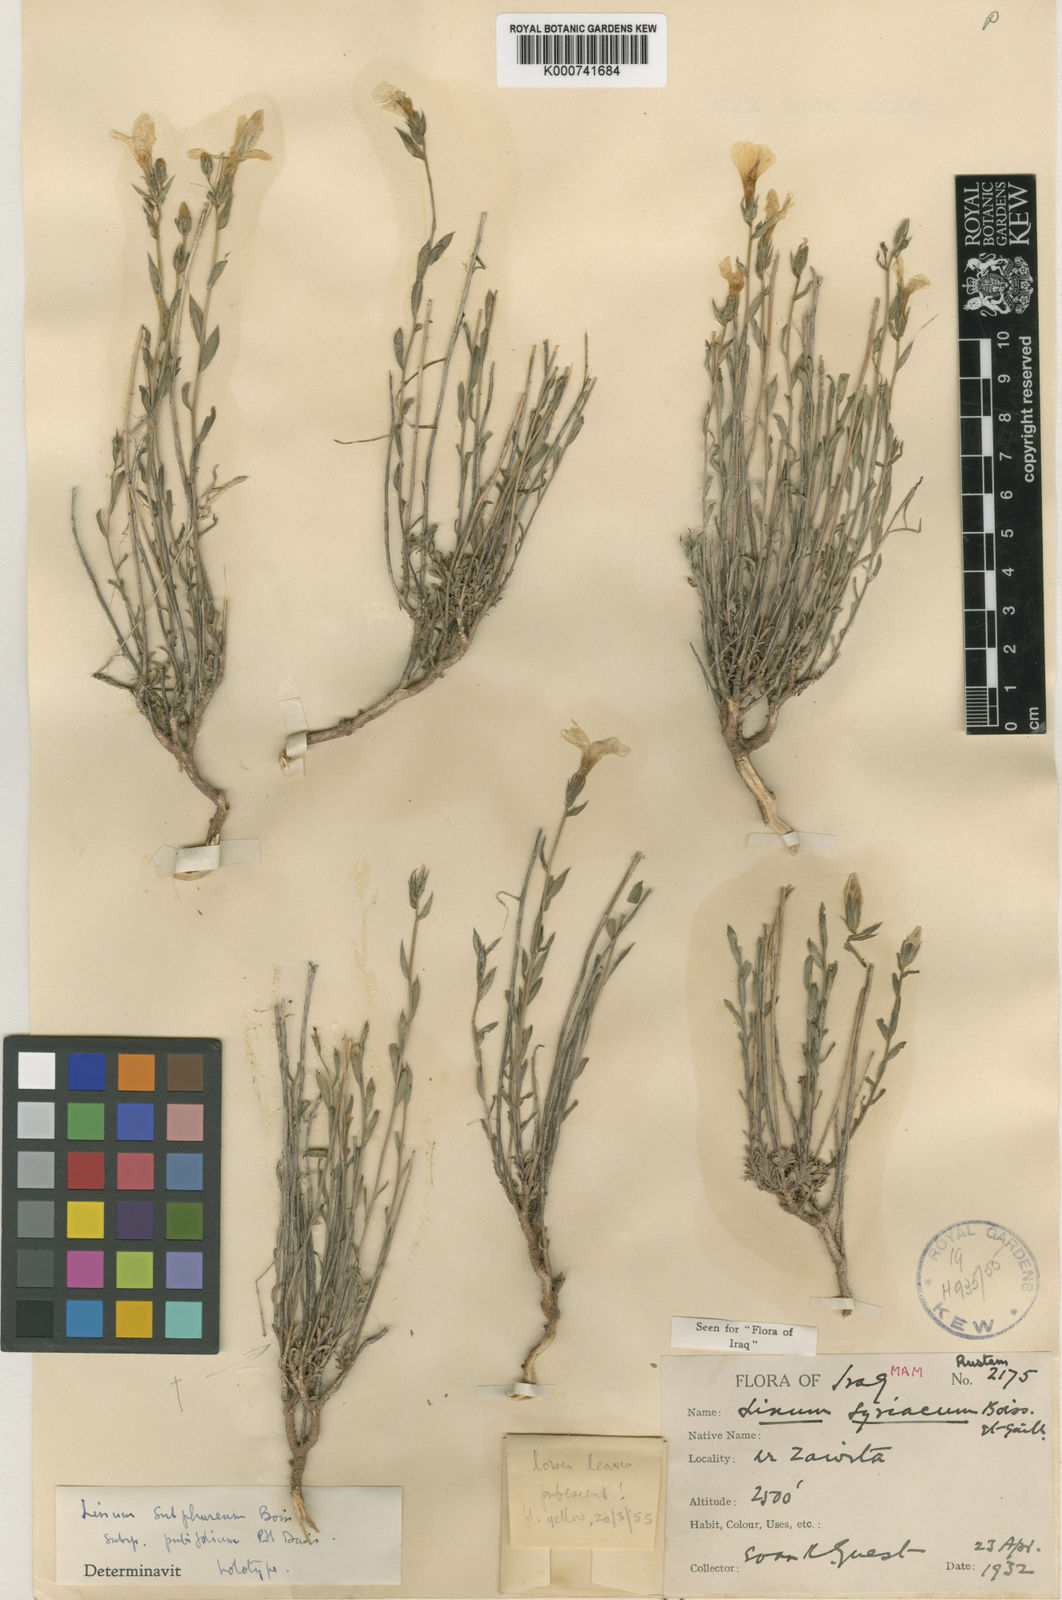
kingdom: Plantae
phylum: Tracheophyta
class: Magnoliopsida
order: Malpighiales
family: Linaceae
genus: Linum
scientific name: Linum
